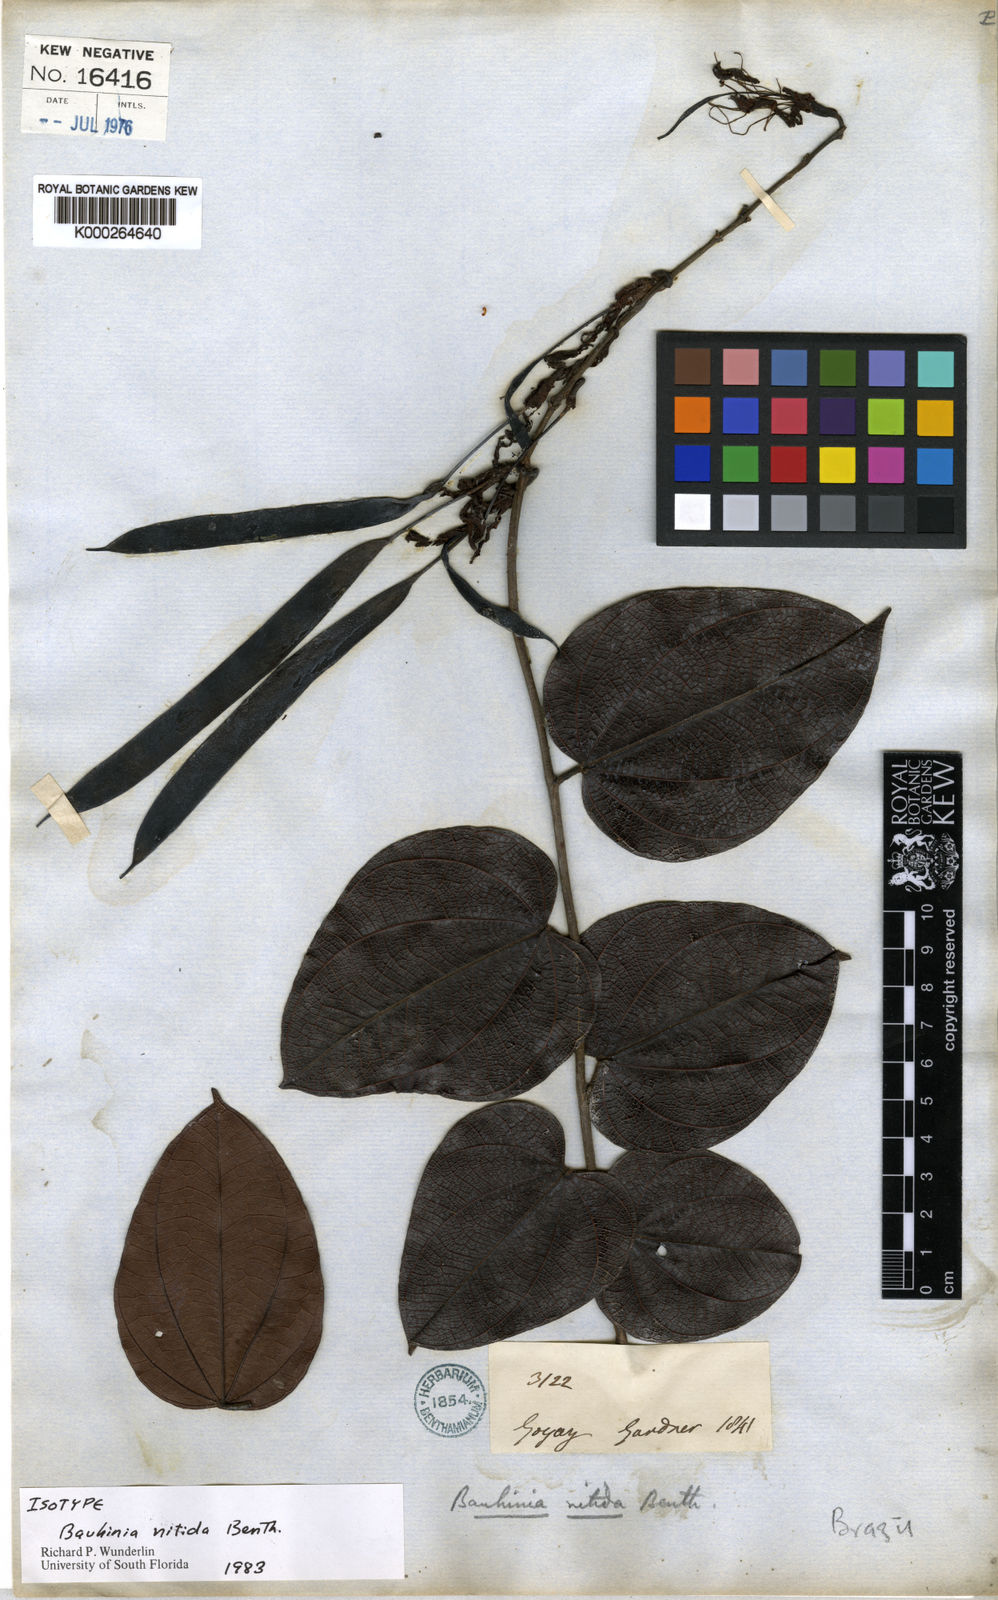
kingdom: Plantae
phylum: Tracheophyta
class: Magnoliopsida
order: Fabales
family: Fabaceae
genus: Bauhinia
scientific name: Bauhinia dubia
